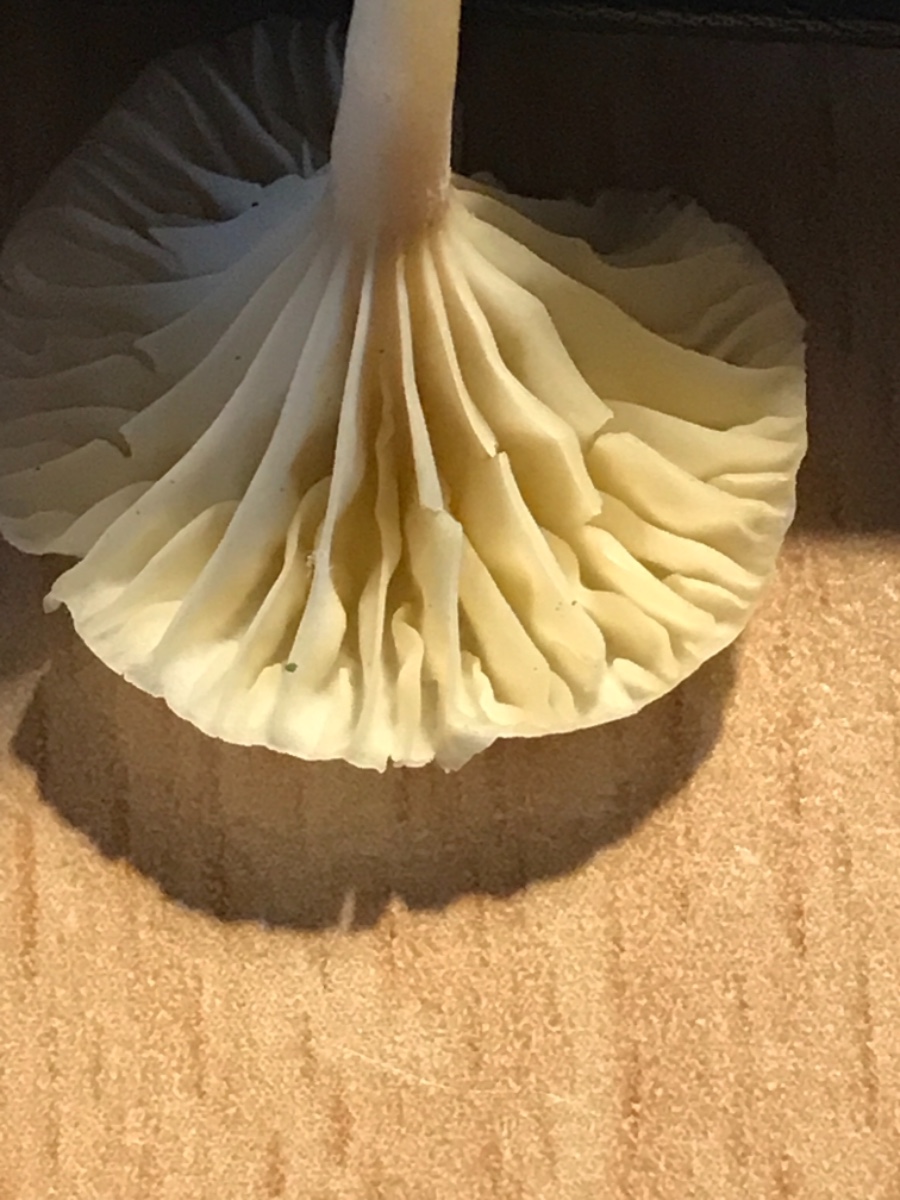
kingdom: Fungi
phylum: Basidiomycota
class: Agaricomycetes
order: Agaricales
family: Hygrophoraceae
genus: Lichenomphalia
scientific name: Lichenomphalia umbellifera
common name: tørve-lavhat
